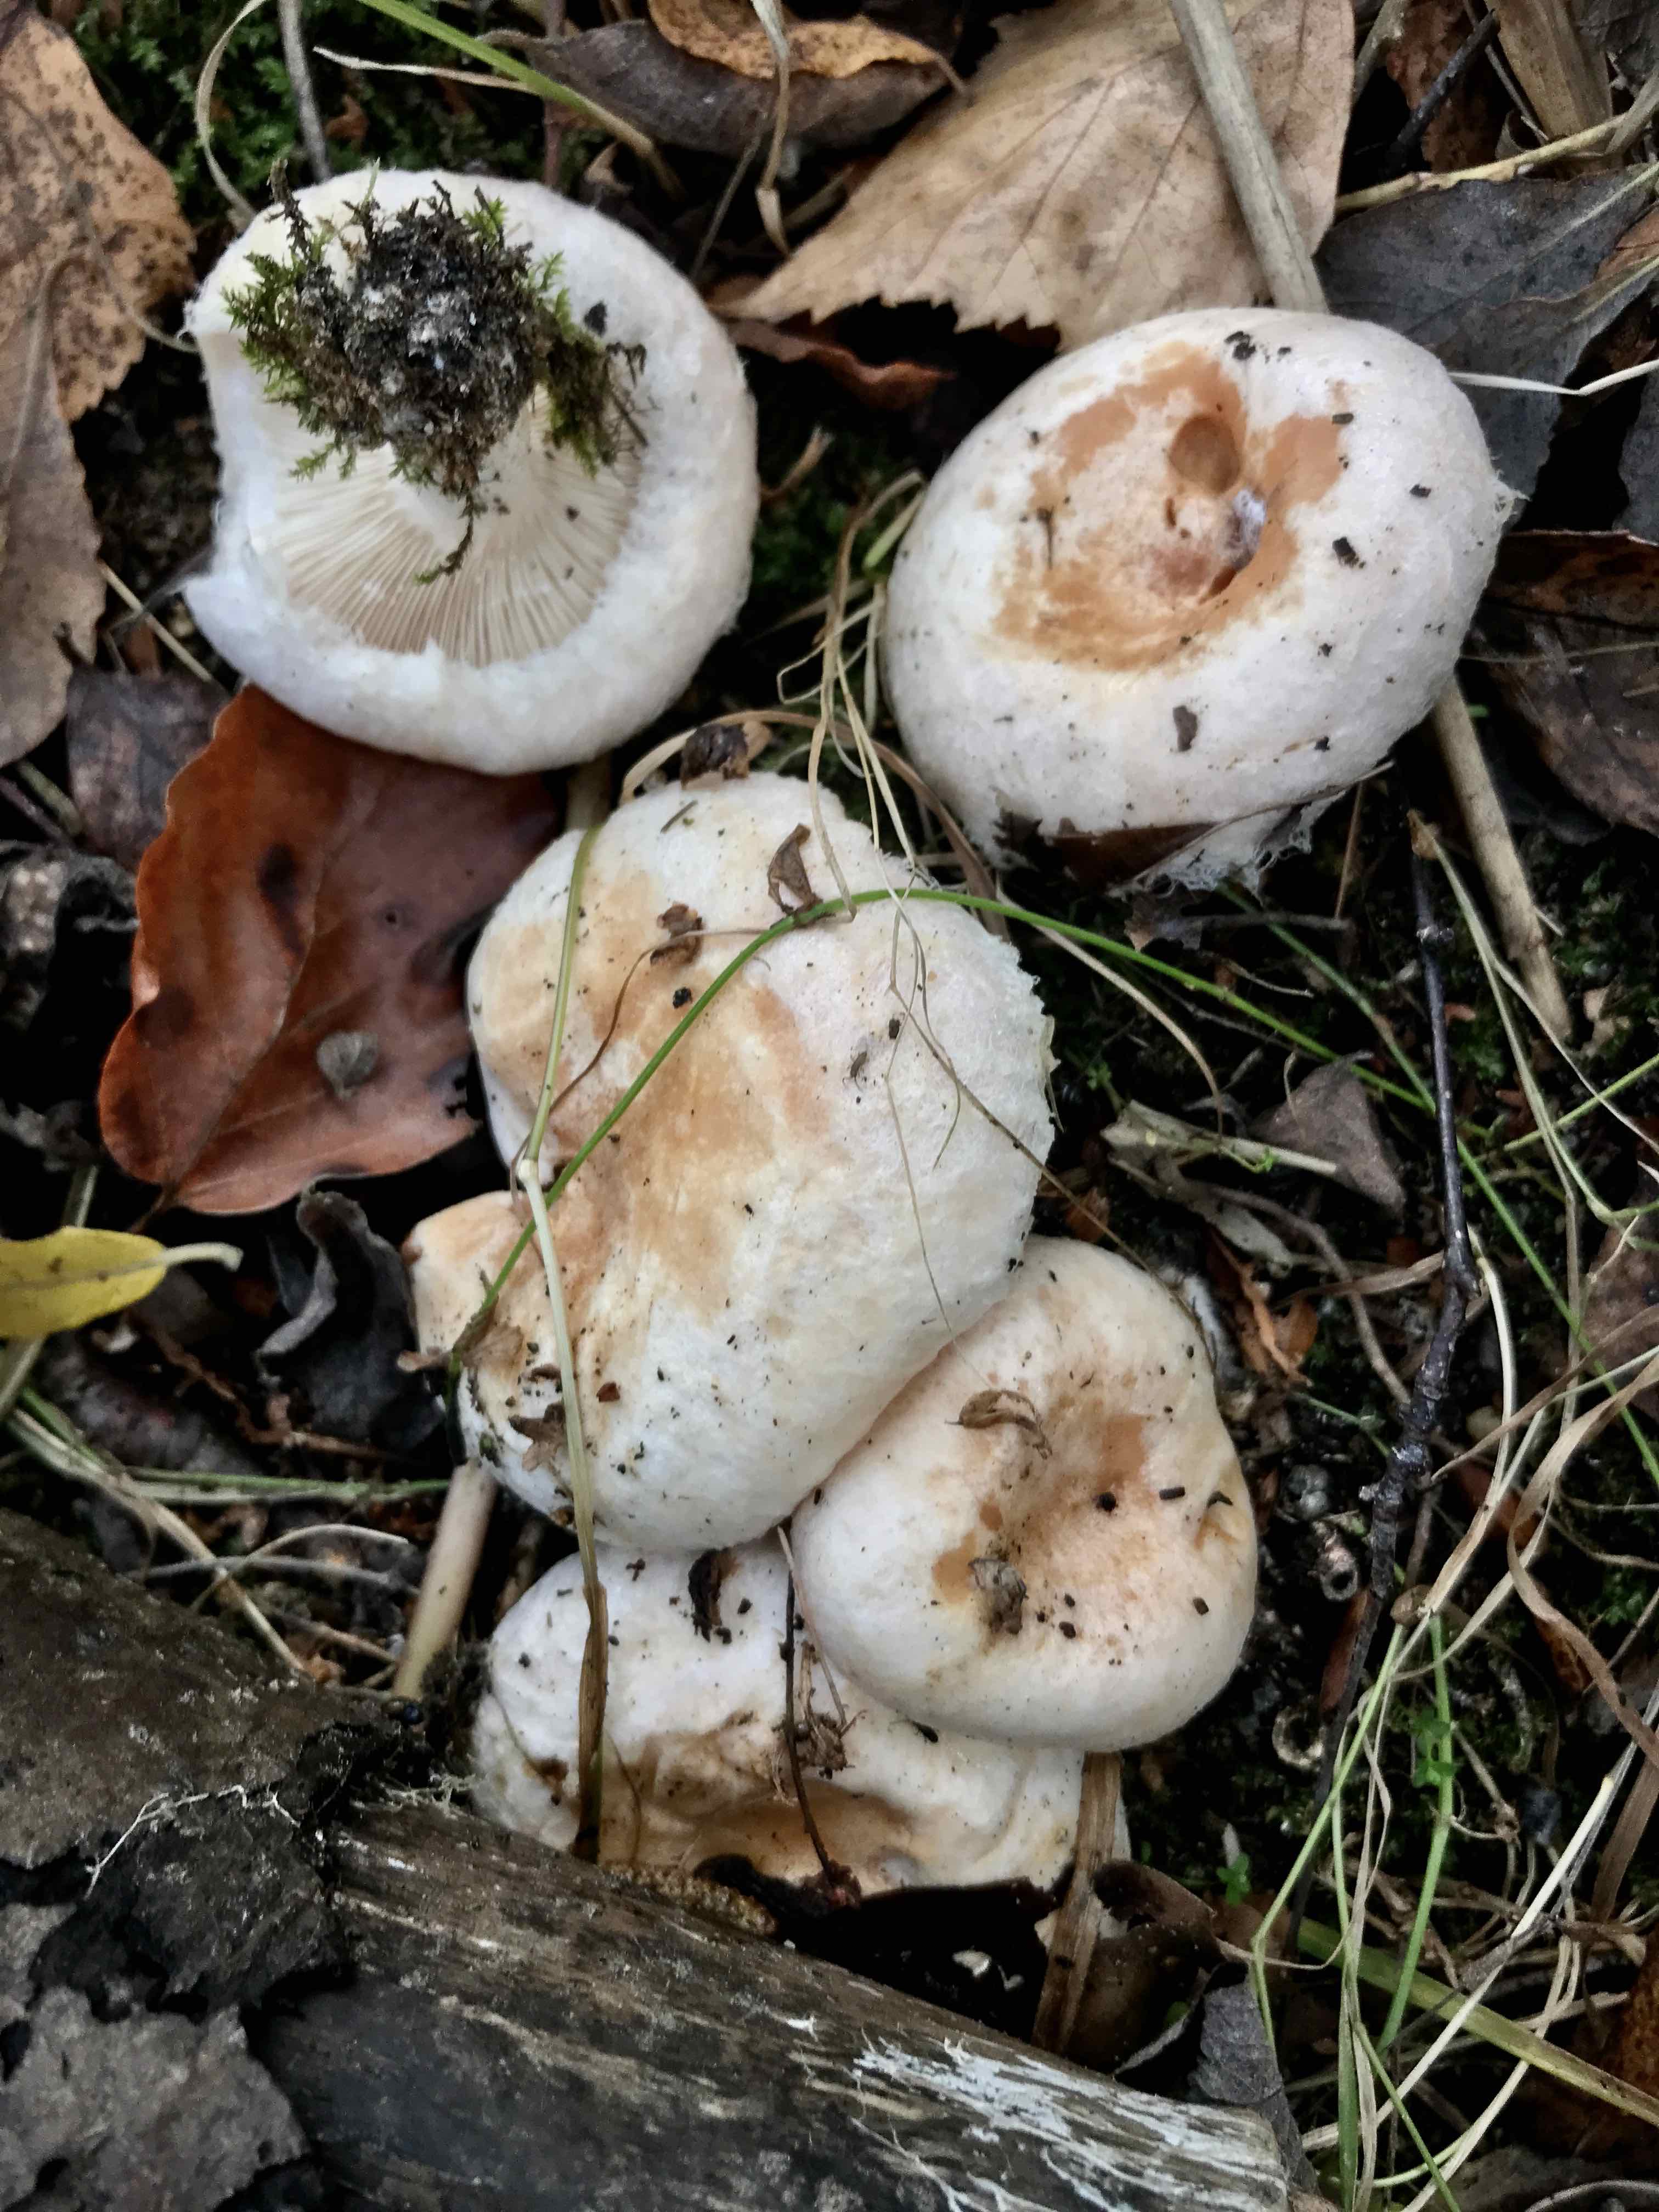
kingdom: Fungi
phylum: Basidiomycota
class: Agaricomycetes
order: Russulales
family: Russulaceae
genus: Lactarius
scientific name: Lactarius pubescens
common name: dunet mælkehat
